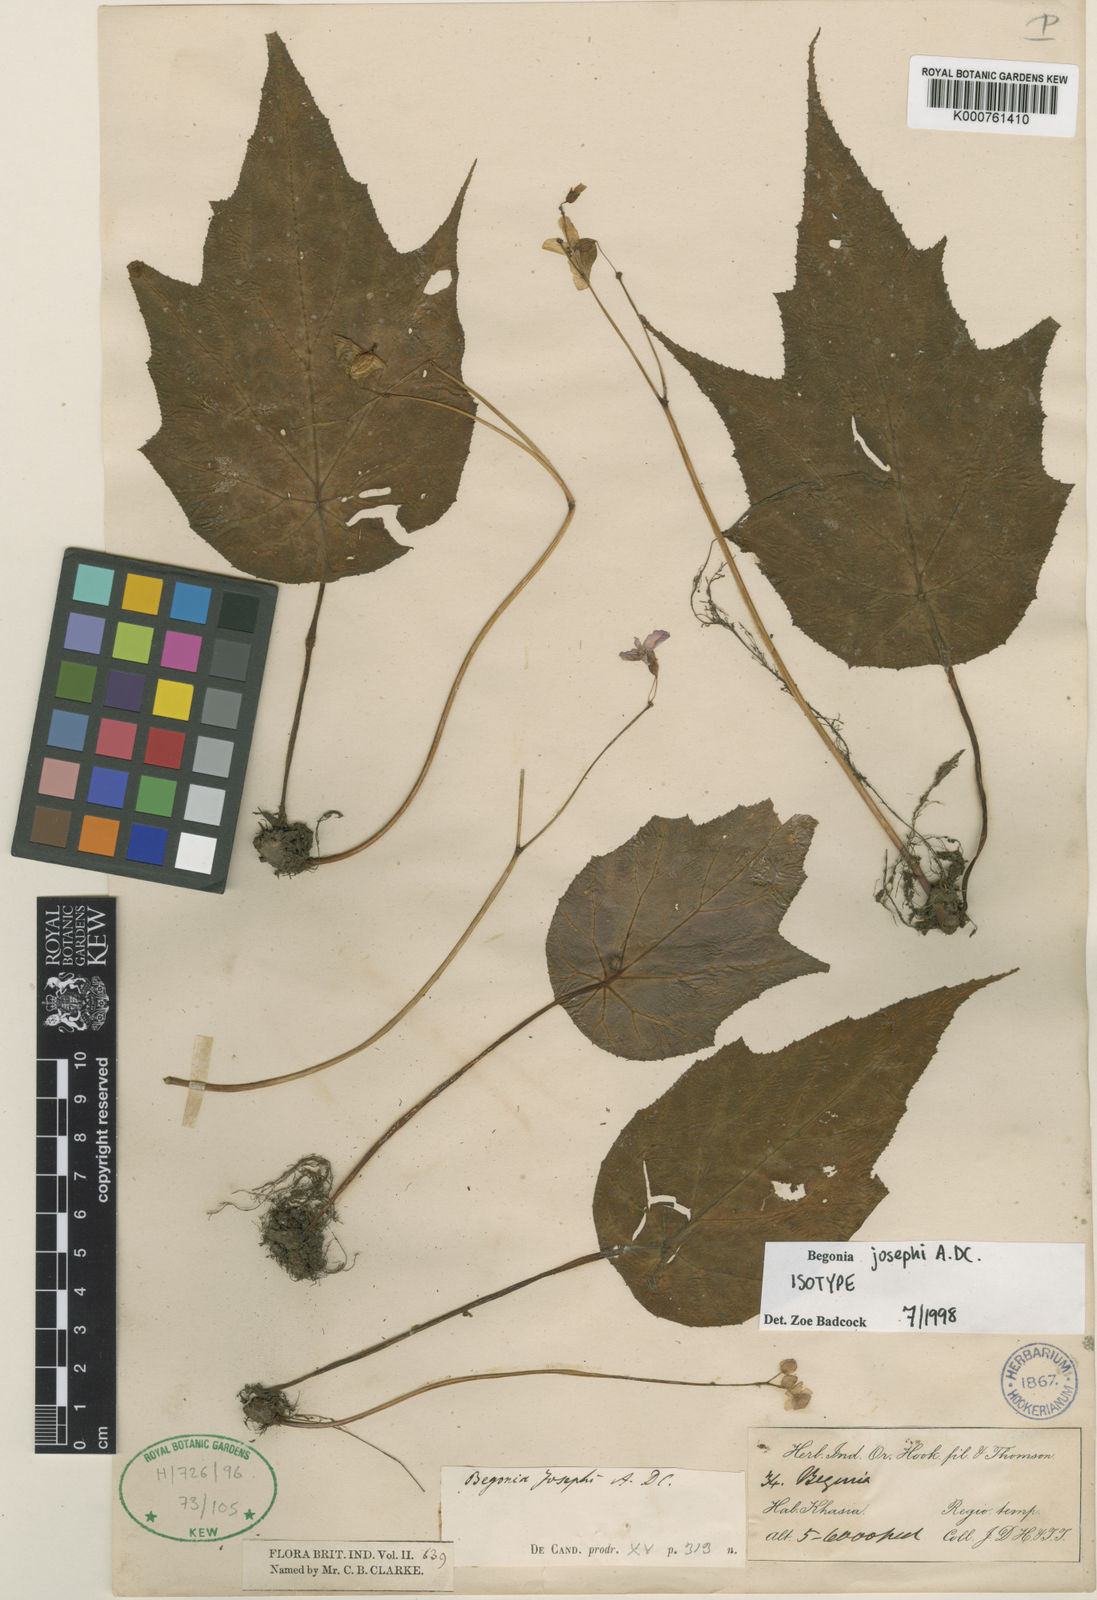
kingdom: Plantae
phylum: Tracheophyta
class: Magnoliopsida
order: Cucurbitales
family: Begoniaceae
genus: Begonia
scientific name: Begonia josephi
